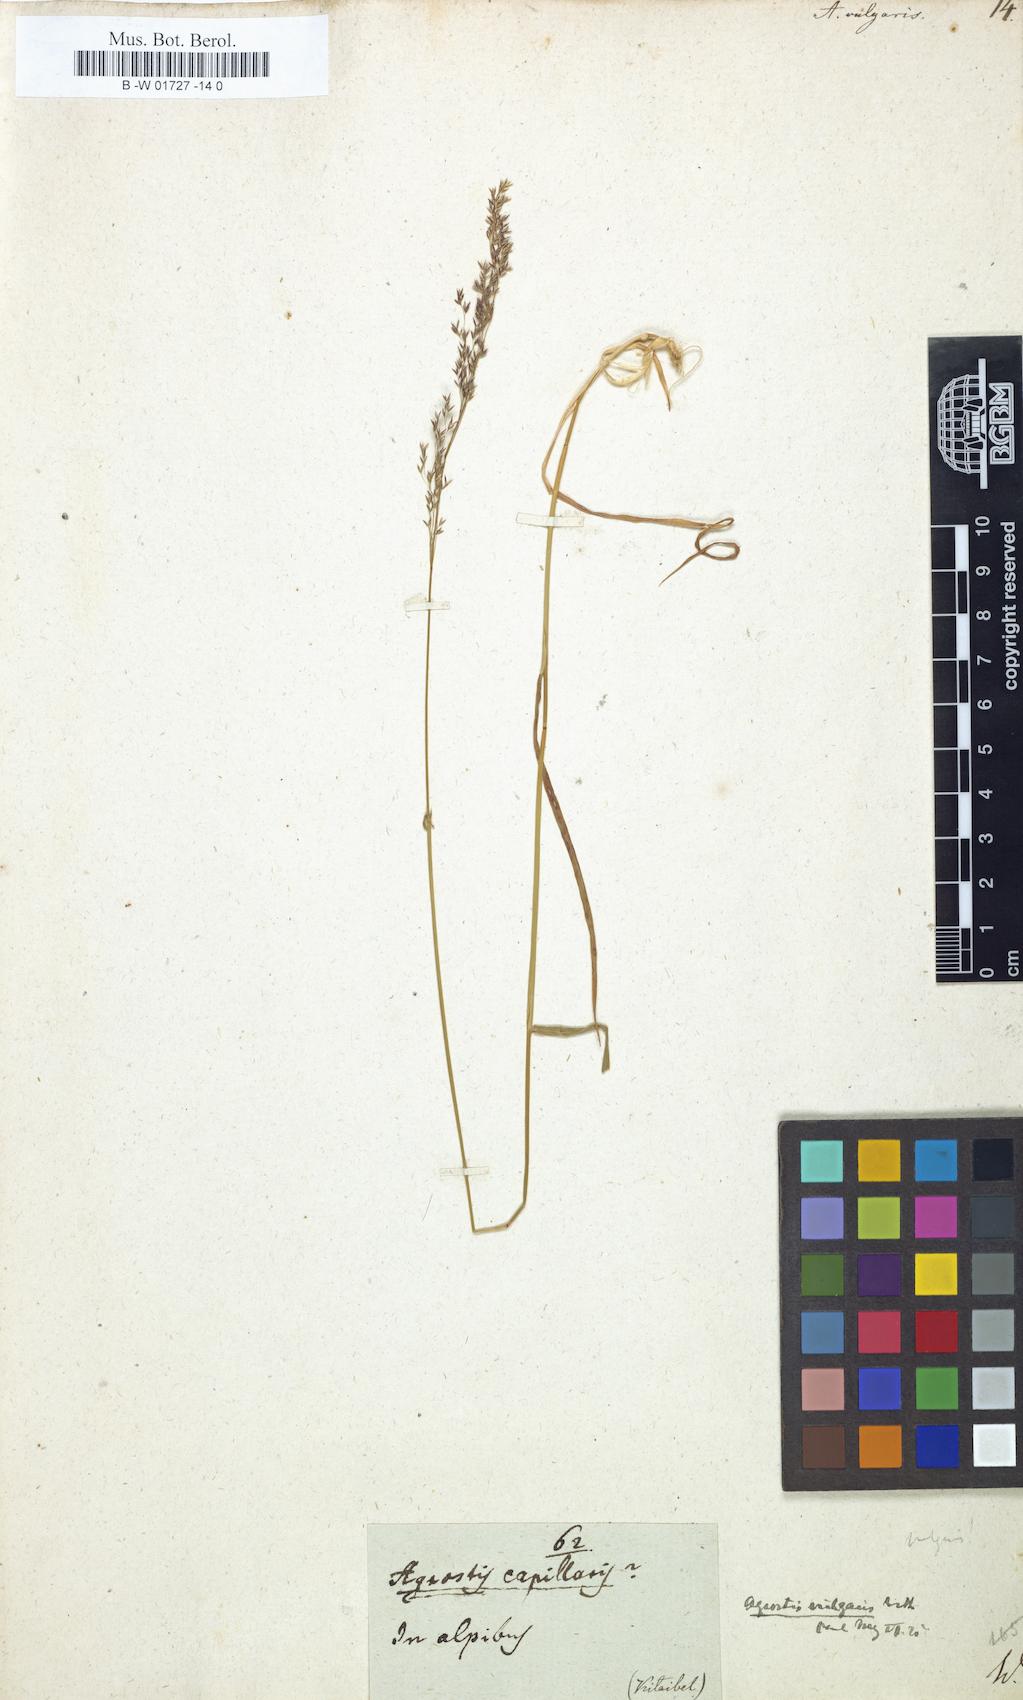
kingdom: Plantae
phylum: Tracheophyta
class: Liliopsida
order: Poales
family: Poaceae
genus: Agrostis
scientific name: Agrostis capillaris
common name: Colonial bentgrass
